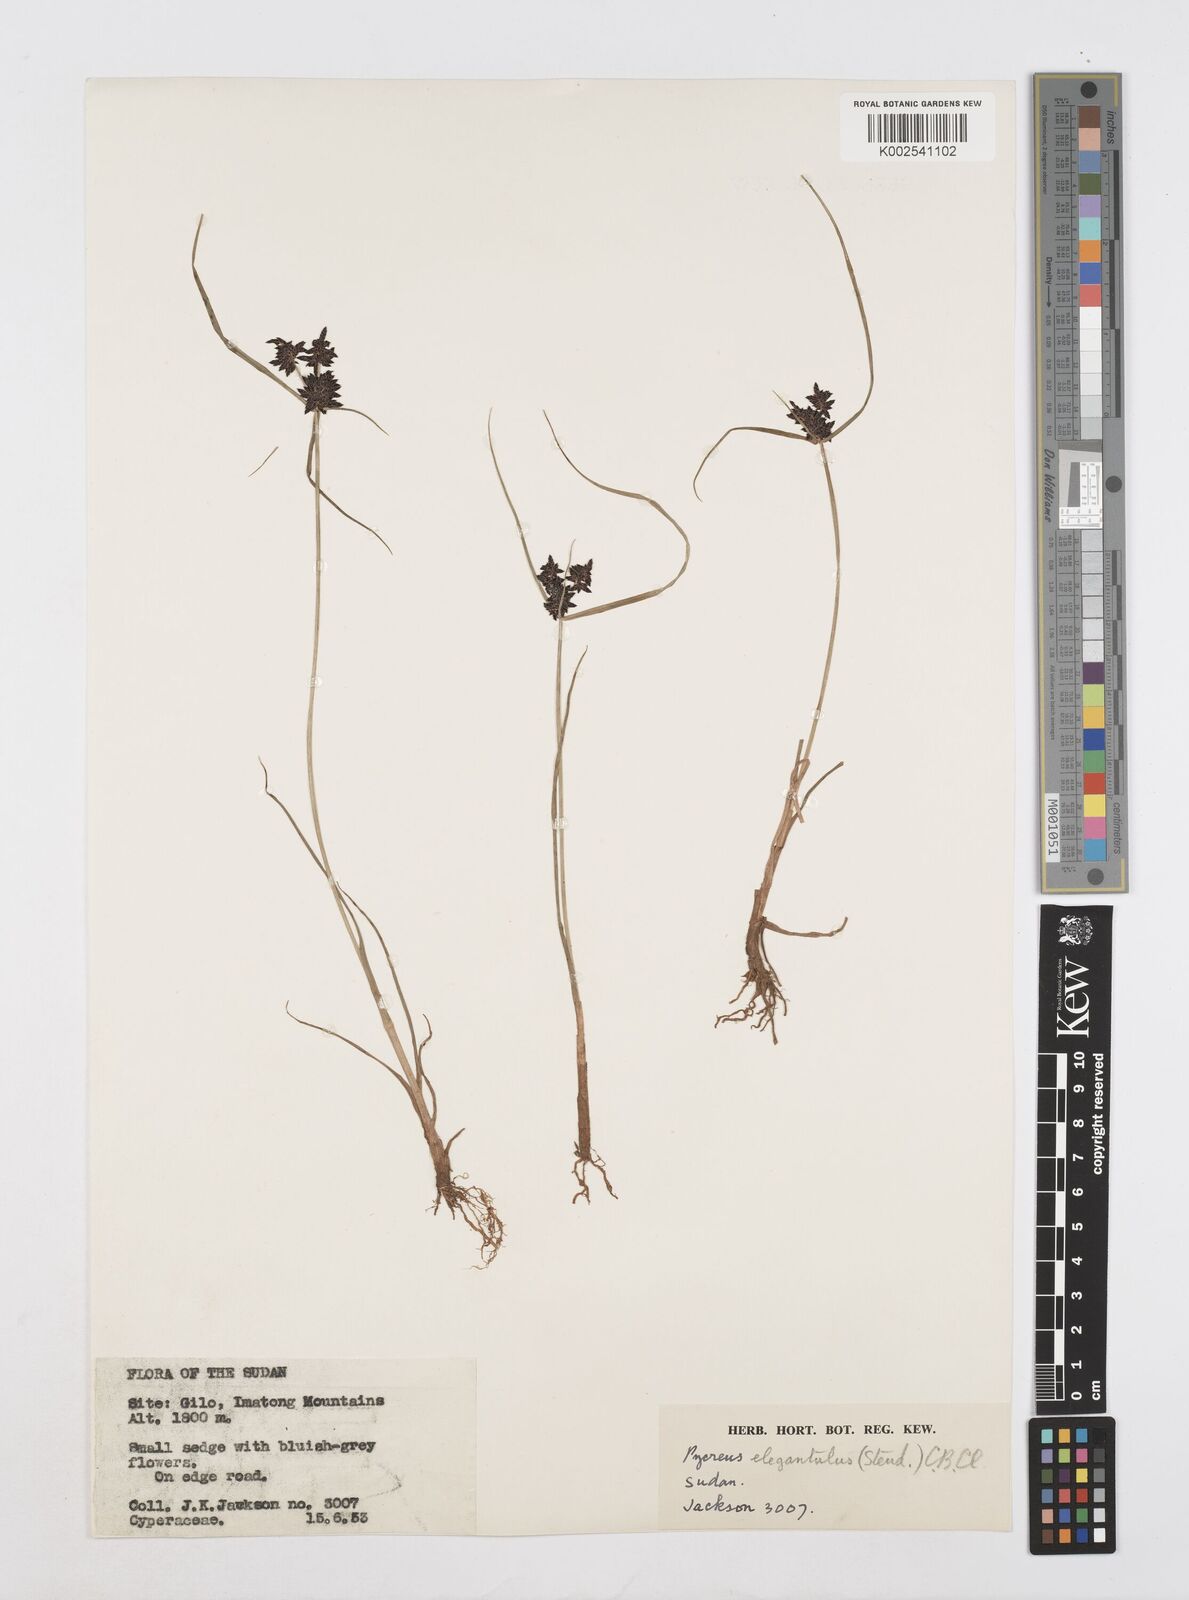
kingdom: Plantae
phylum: Tracheophyta
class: Liliopsida
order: Poales
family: Cyperaceae
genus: Cyperus
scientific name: Cyperus elegantulus
